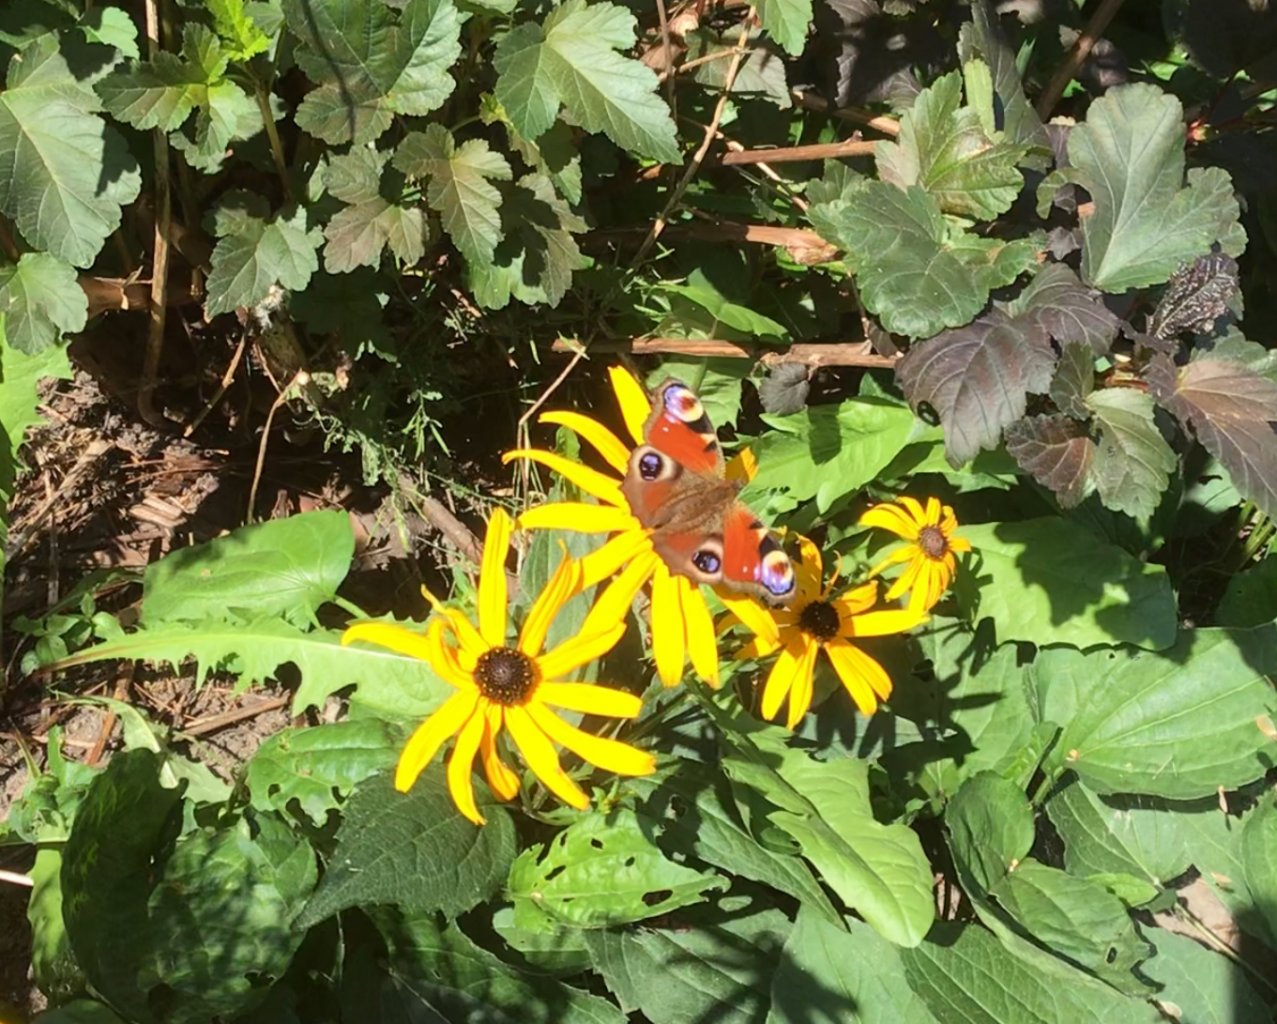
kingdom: Animalia
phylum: Arthropoda
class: Insecta
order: Lepidoptera
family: Nymphalidae
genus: Aglais
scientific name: Aglais io
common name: European Peacock
